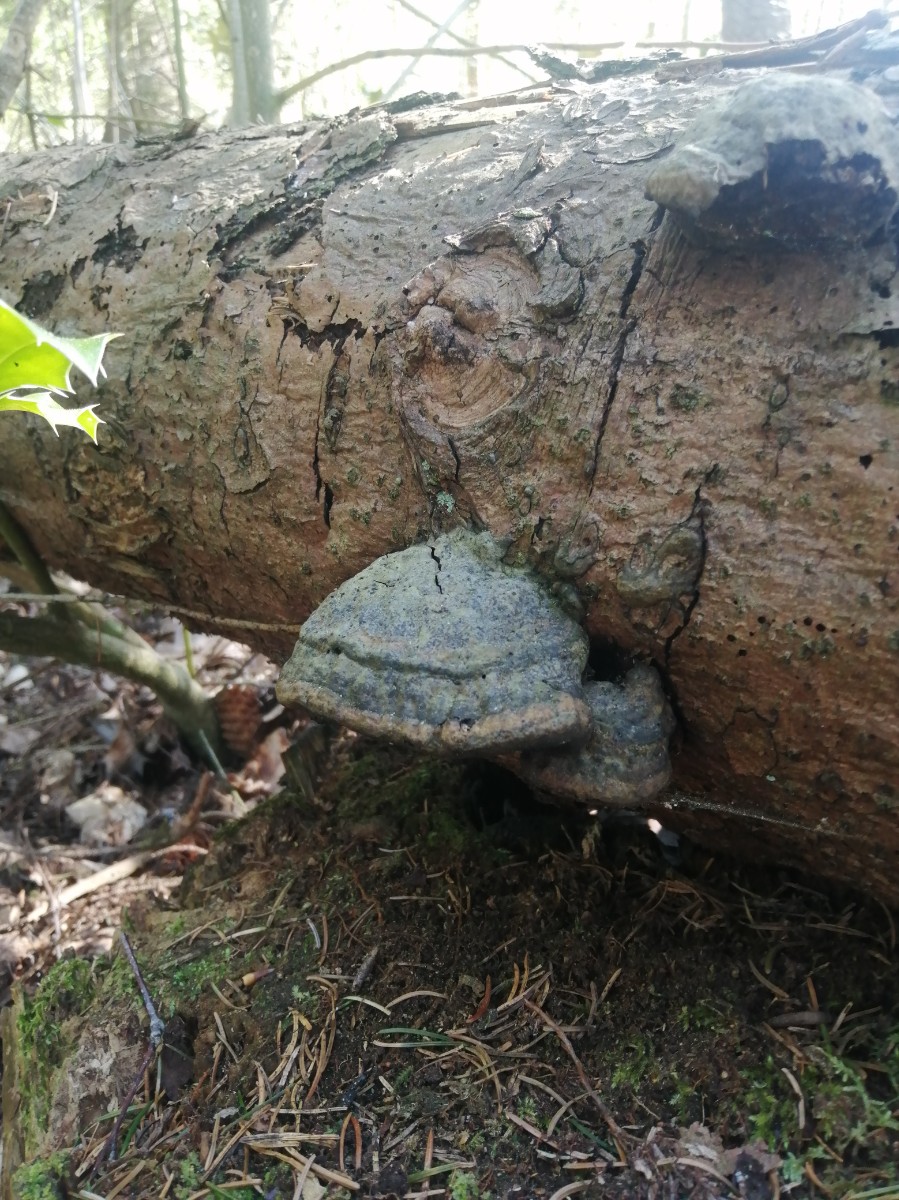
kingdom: Fungi
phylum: Basidiomycota
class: Agaricomycetes
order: Polyporales
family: Polyporaceae
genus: Fomes
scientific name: Fomes fomentarius
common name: tøndersvamp
